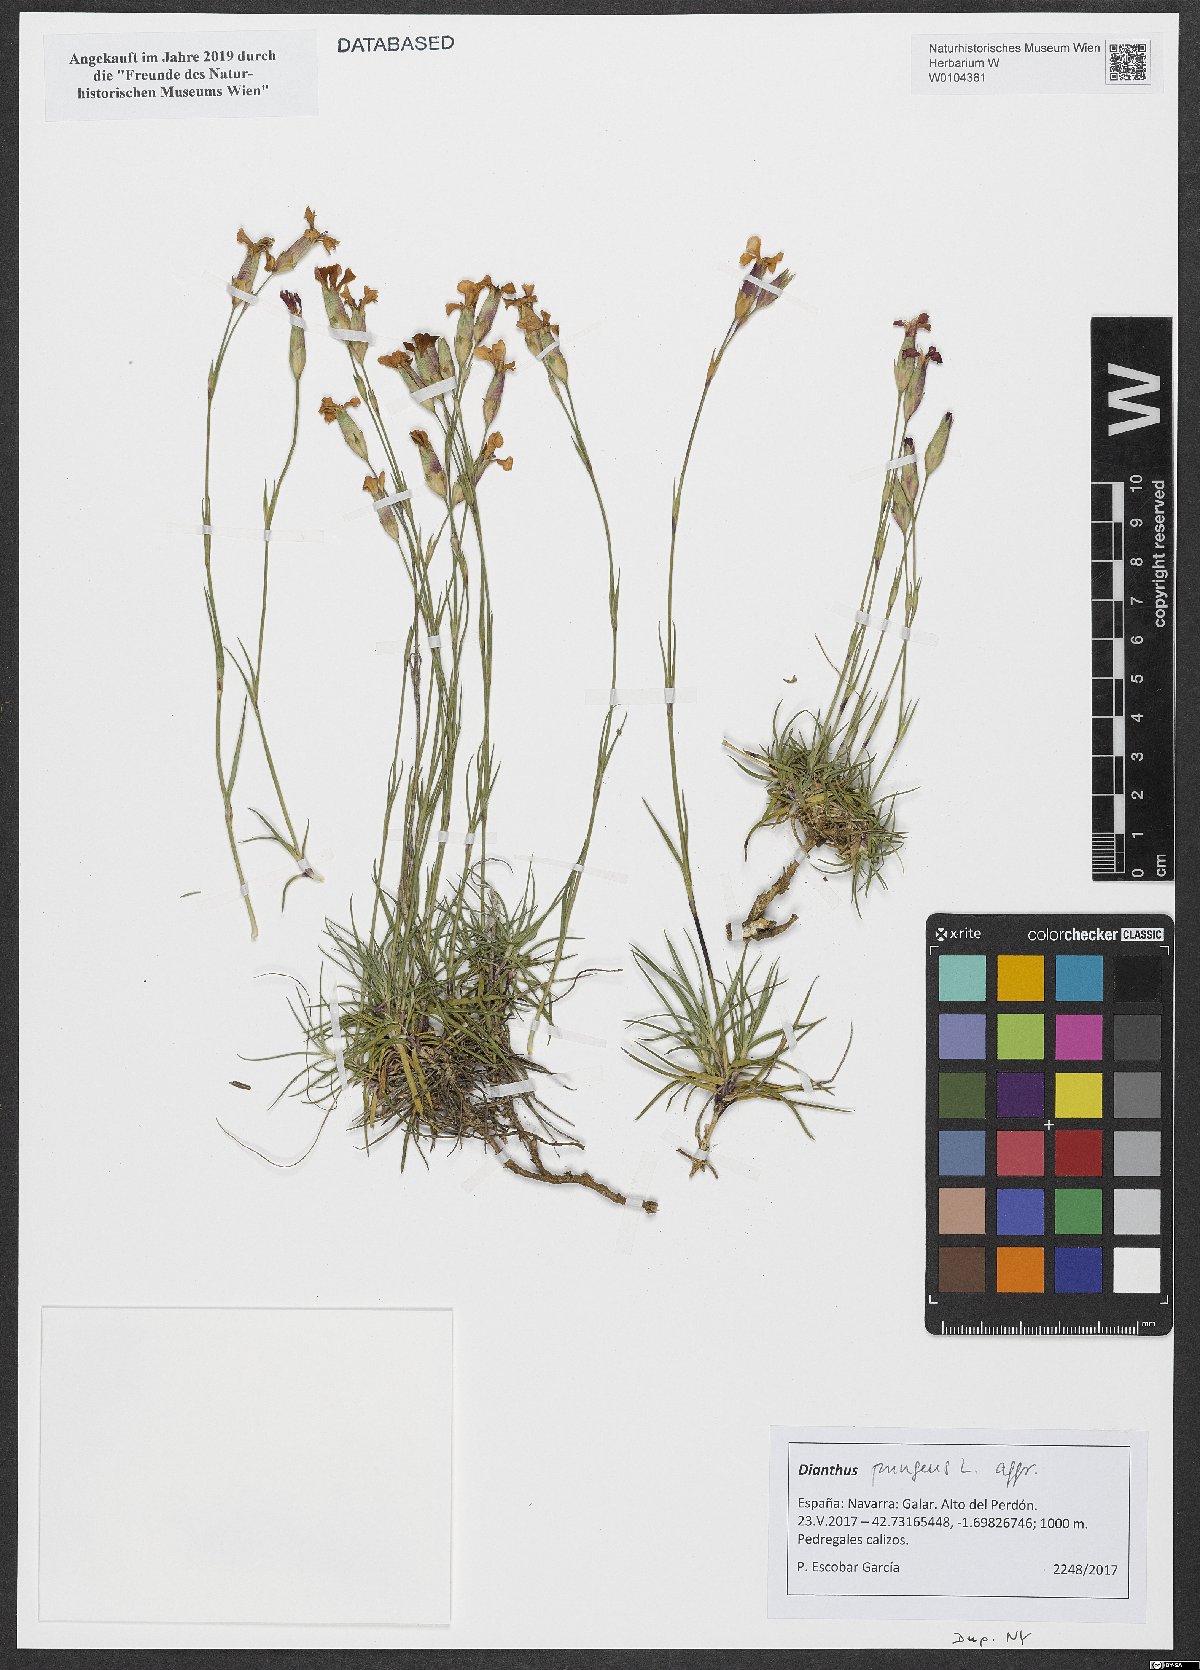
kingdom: Plantae
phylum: Tracheophyta
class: Magnoliopsida
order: Caryophyllales
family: Caryophyllaceae
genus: Dianthus
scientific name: Dianthus pungens
